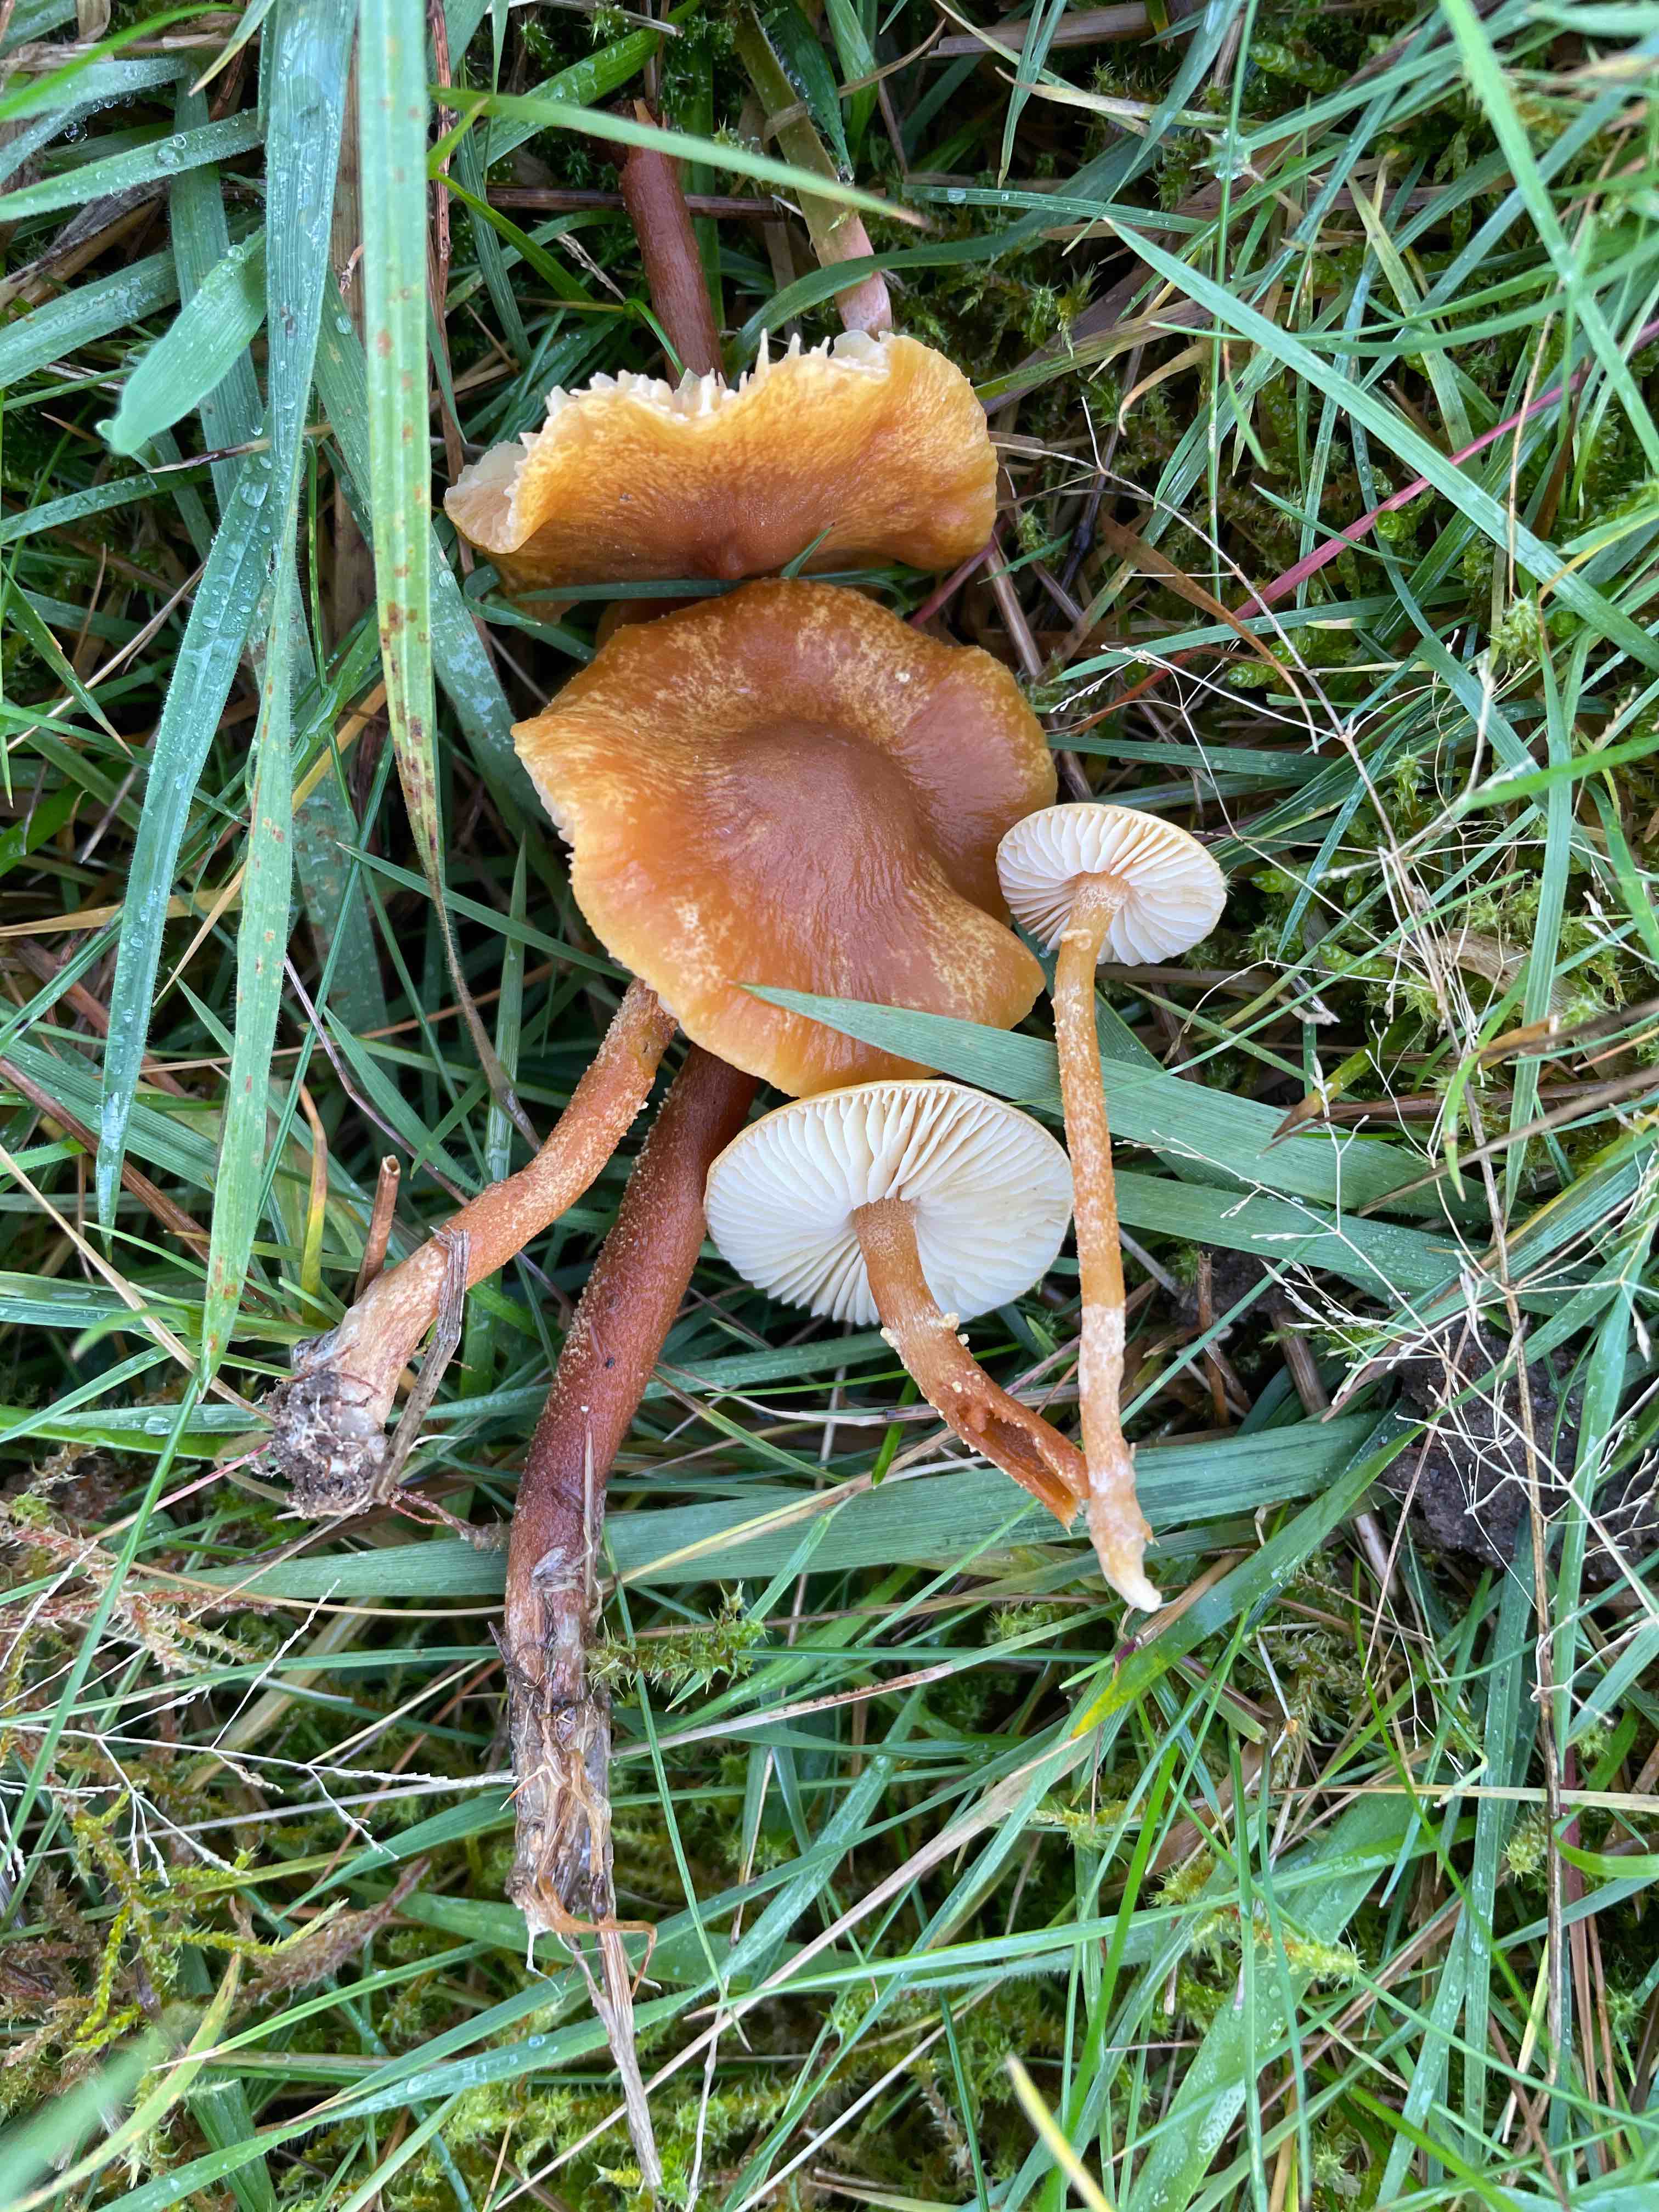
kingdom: Fungi
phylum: Basidiomycota
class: Agaricomycetes
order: Agaricales
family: Tricholomataceae
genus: Cystoderma
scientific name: Cystoderma amianthinum
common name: okkergul grynhat
